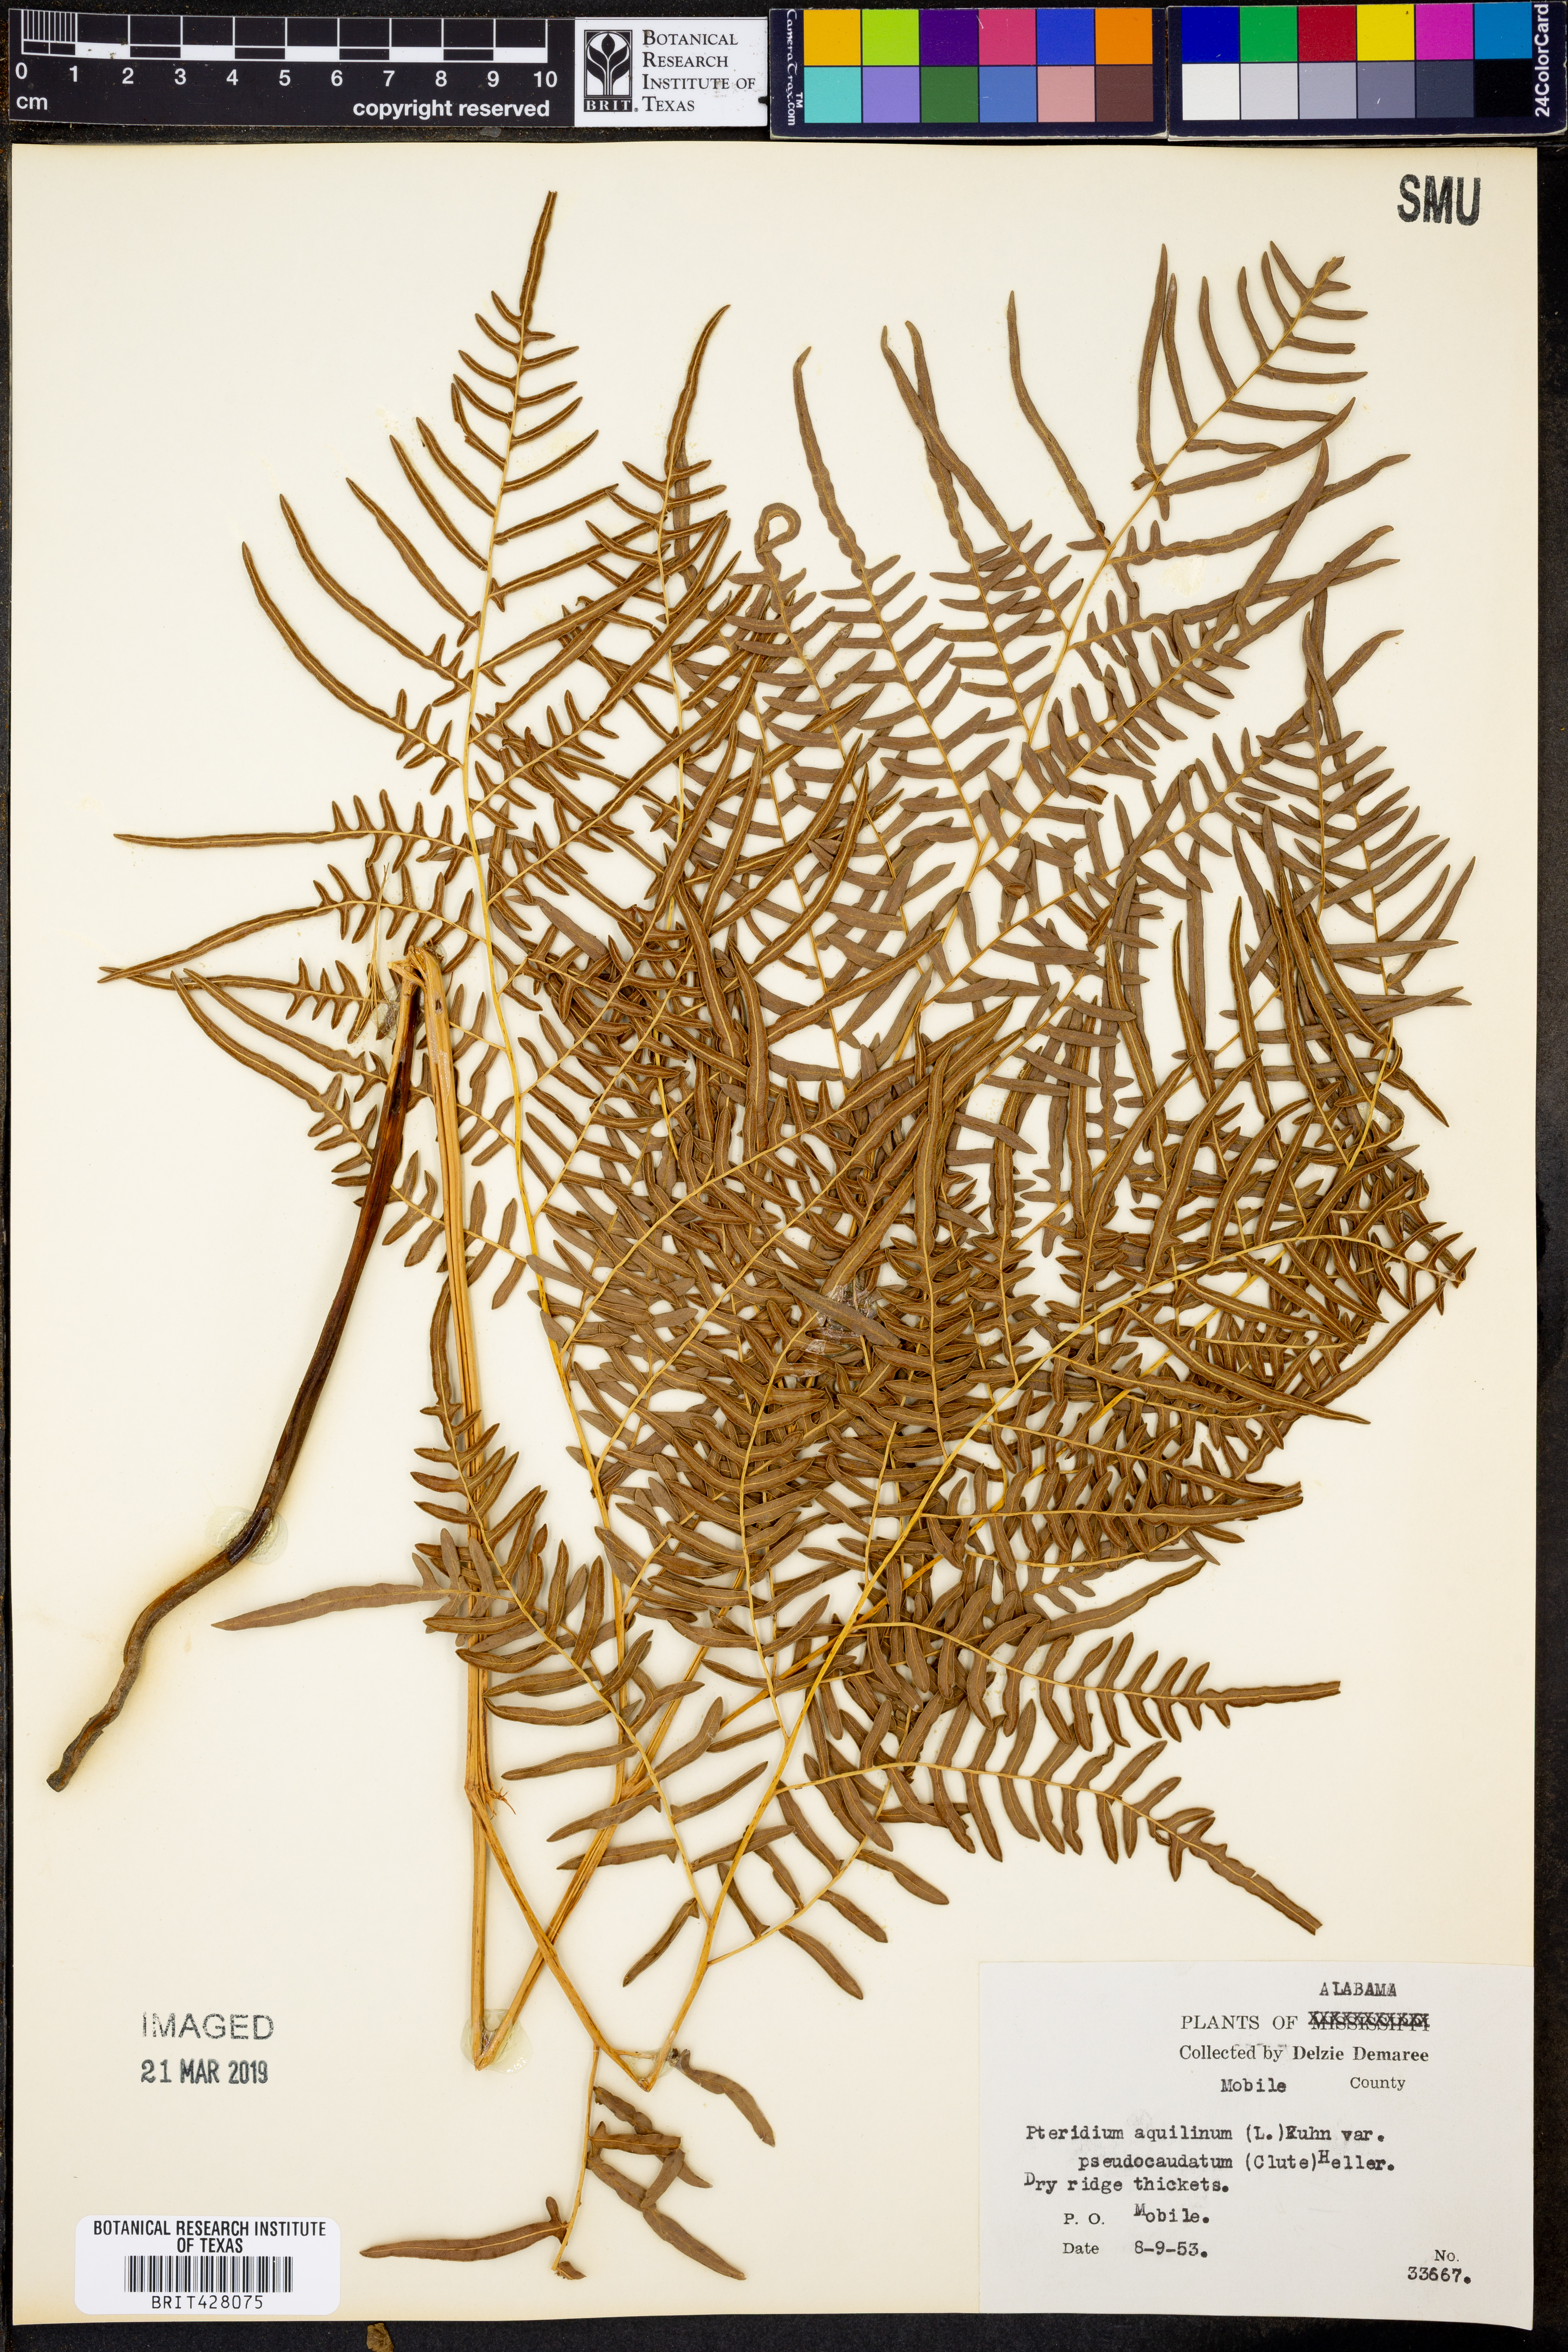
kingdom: Plantae
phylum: Tracheophyta
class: Polypodiopsida
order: Polypodiales
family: Dennstaedtiaceae
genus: Pteridium
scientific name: Pteridium aquilinum
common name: Bracken
